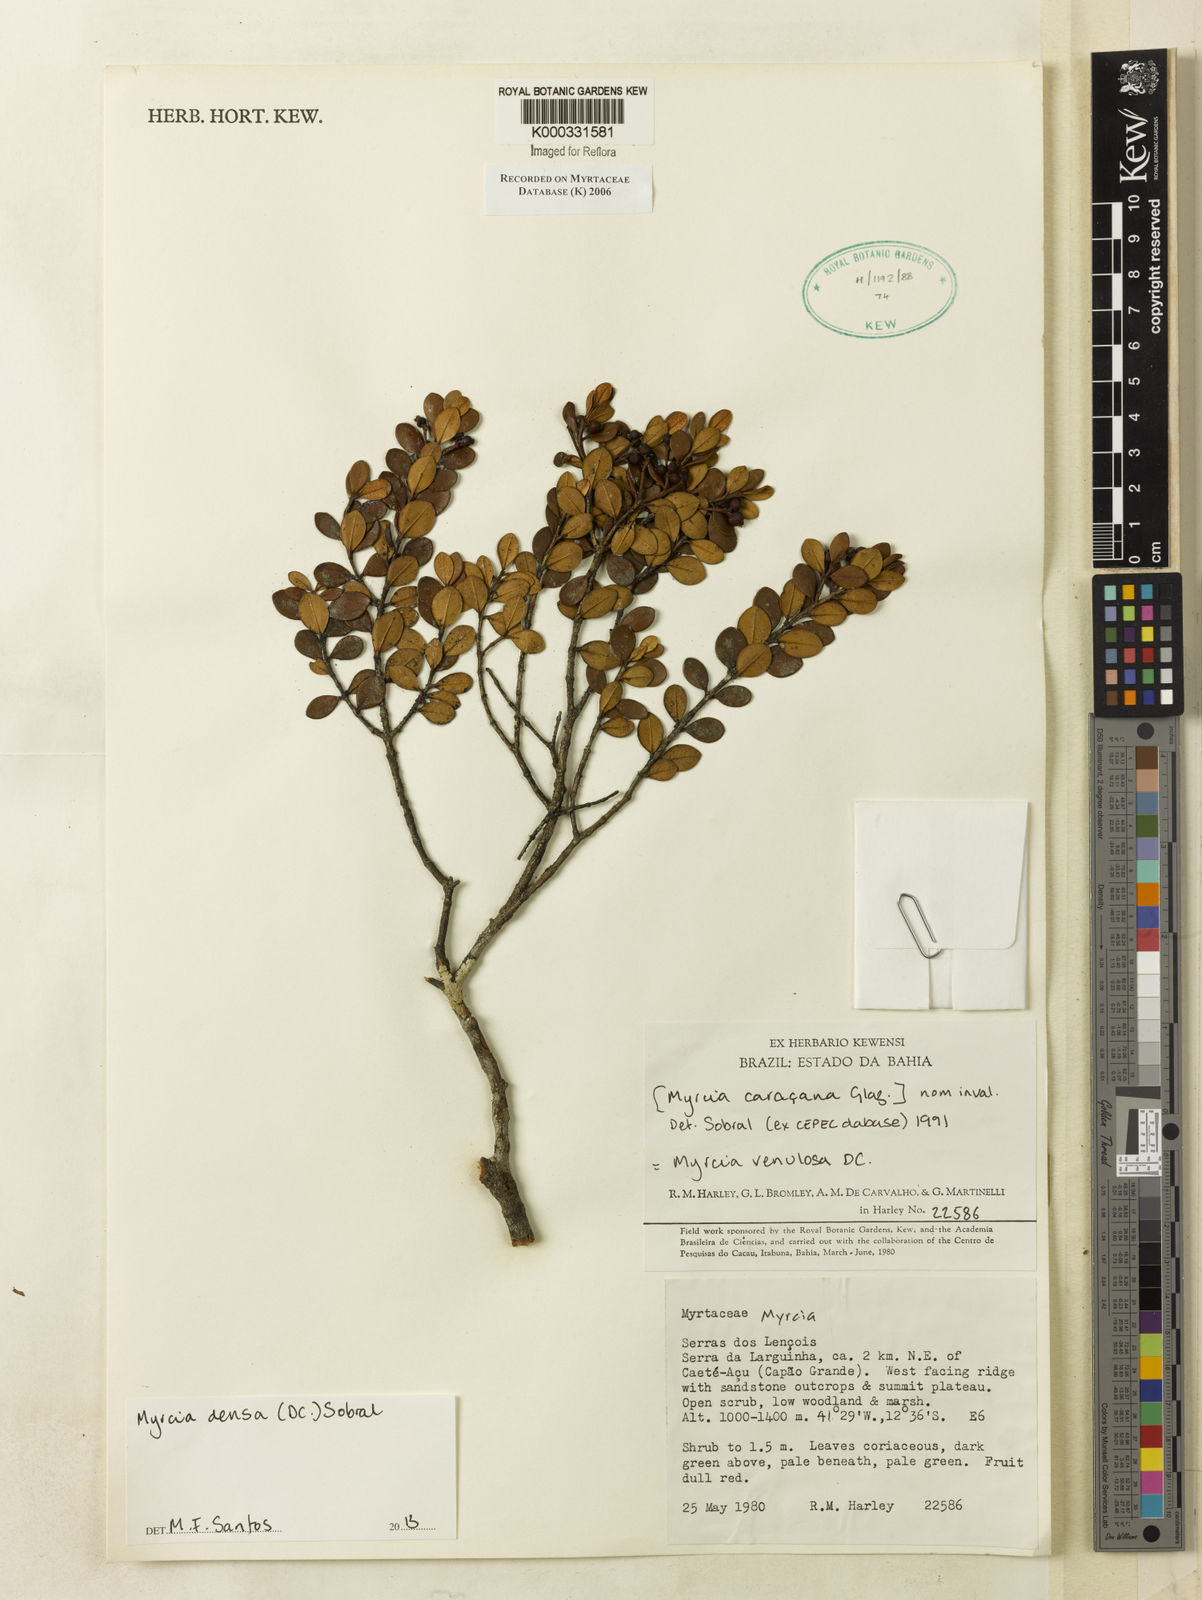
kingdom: Plantae
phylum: Tracheophyta
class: Magnoliopsida
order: Myrtales
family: Myrtaceae
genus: Myrcia
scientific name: Myrcia
